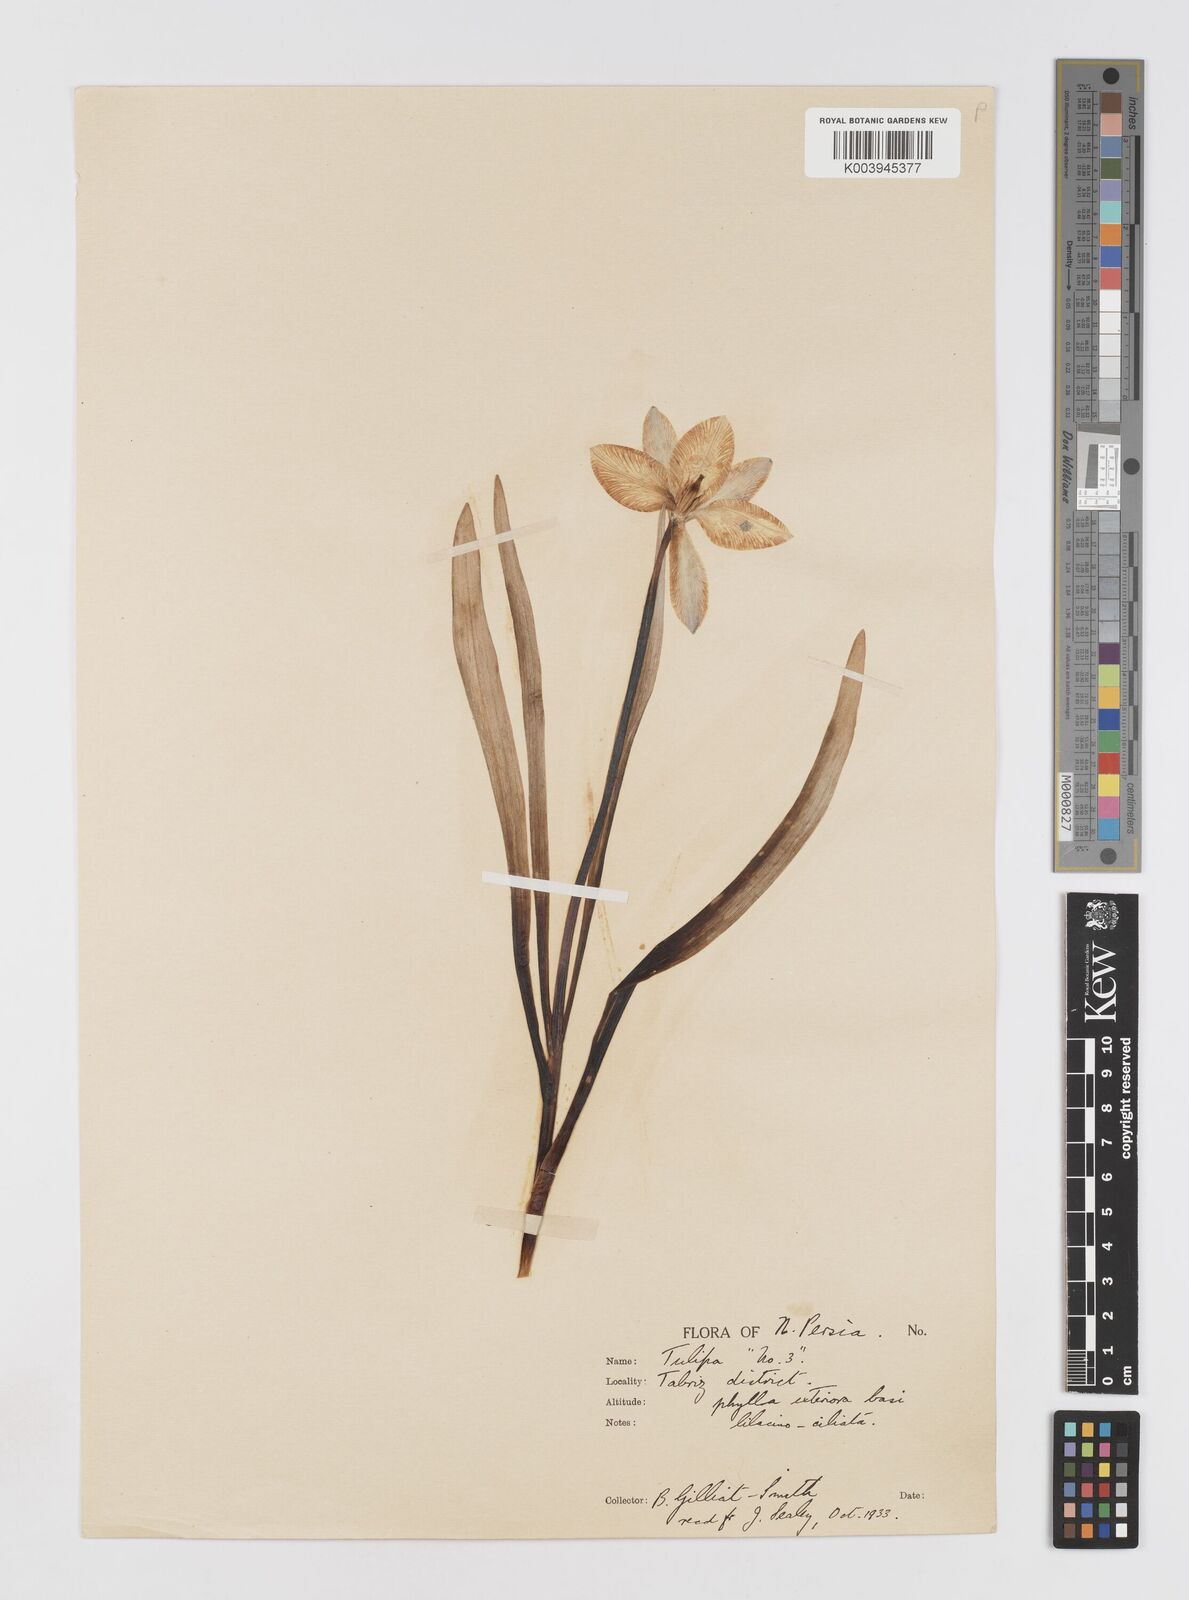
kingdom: Plantae
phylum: Tracheophyta
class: Liliopsida
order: Liliales
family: Liliaceae
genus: Tulipa
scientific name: Tulipa humilis
